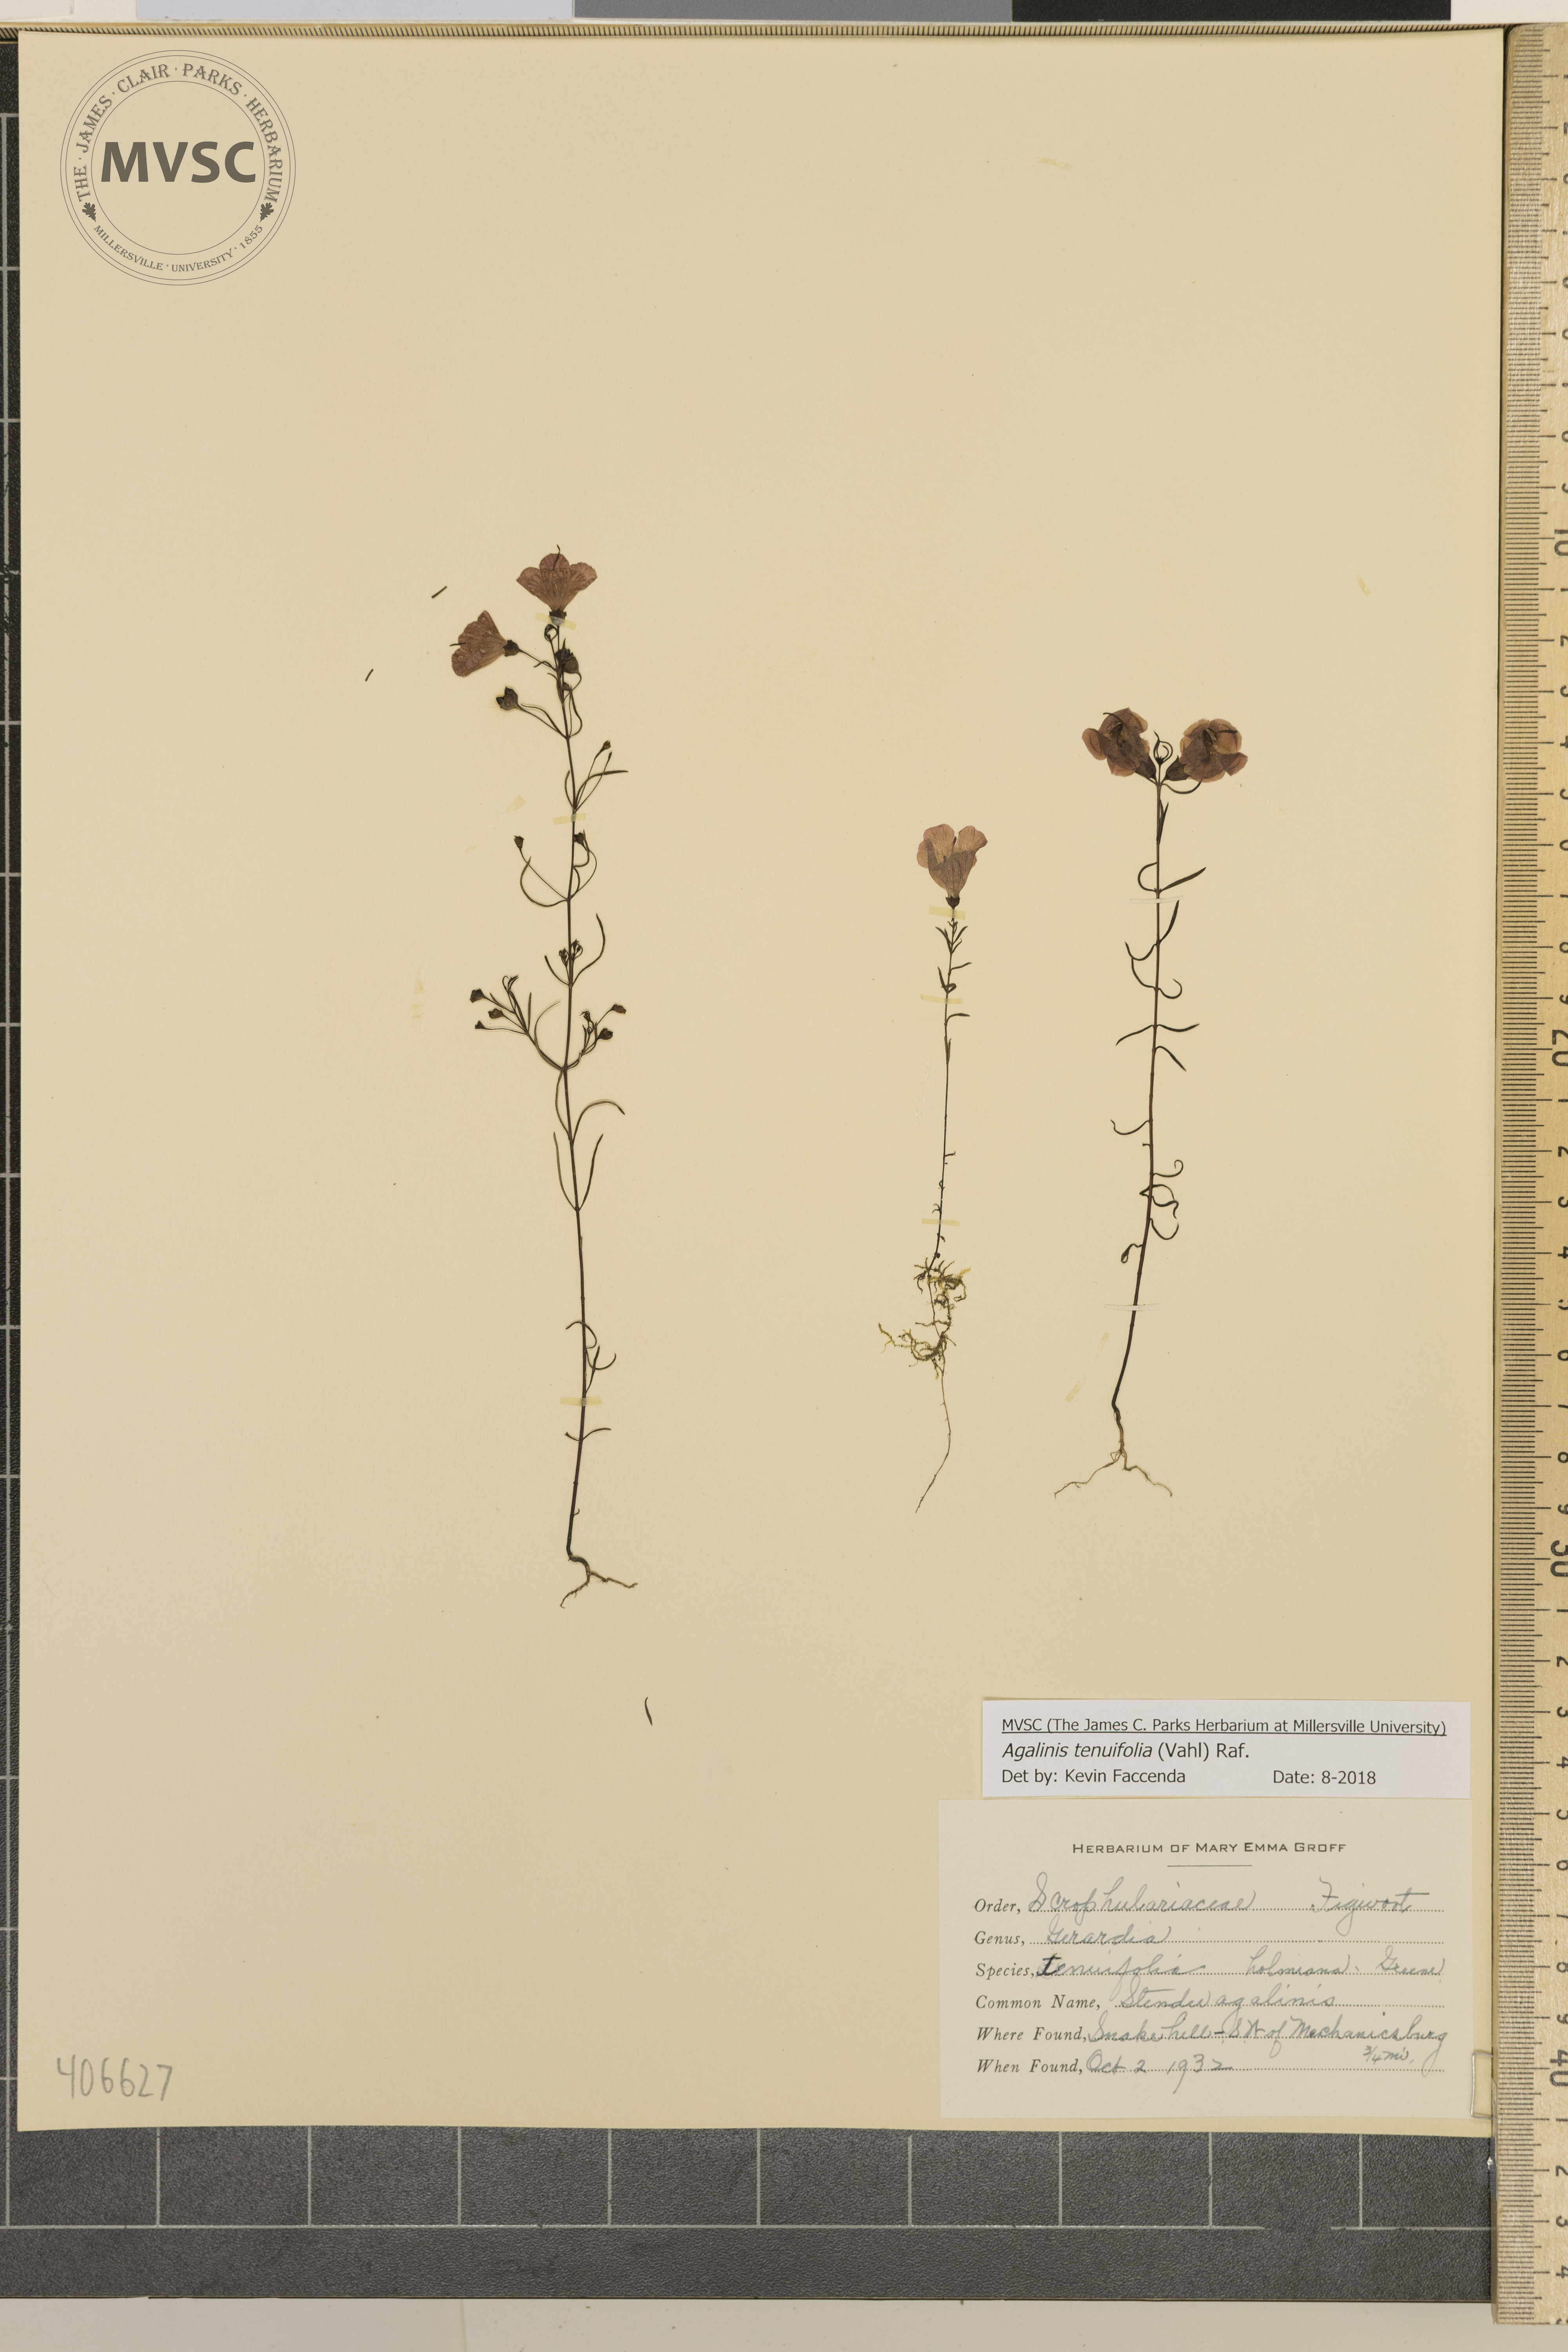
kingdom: Plantae
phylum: Tracheophyta
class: Magnoliopsida
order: Lamiales
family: Orobanchaceae
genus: Agalinis
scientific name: Agalinis tenuifolia
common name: Slender agalinis
